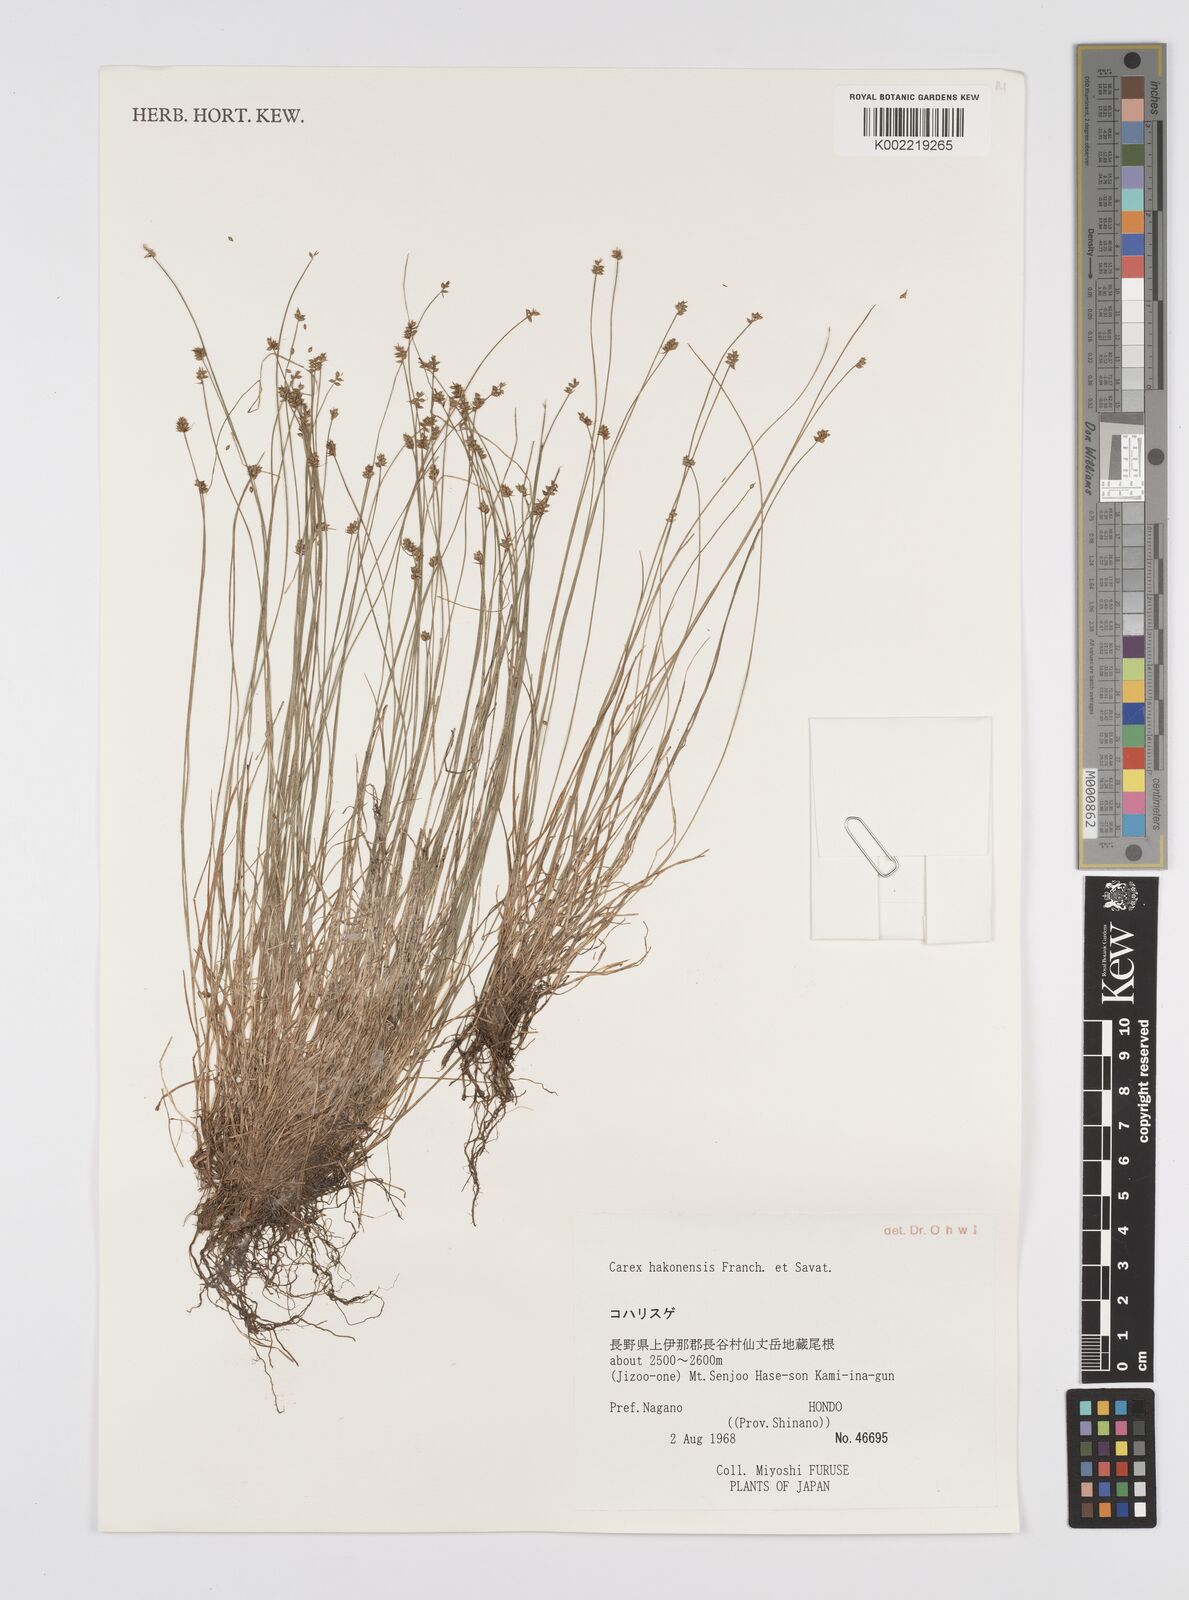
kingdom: Plantae
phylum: Tracheophyta
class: Liliopsida
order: Poales
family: Cyperaceae
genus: Carex
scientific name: Carex onoei
